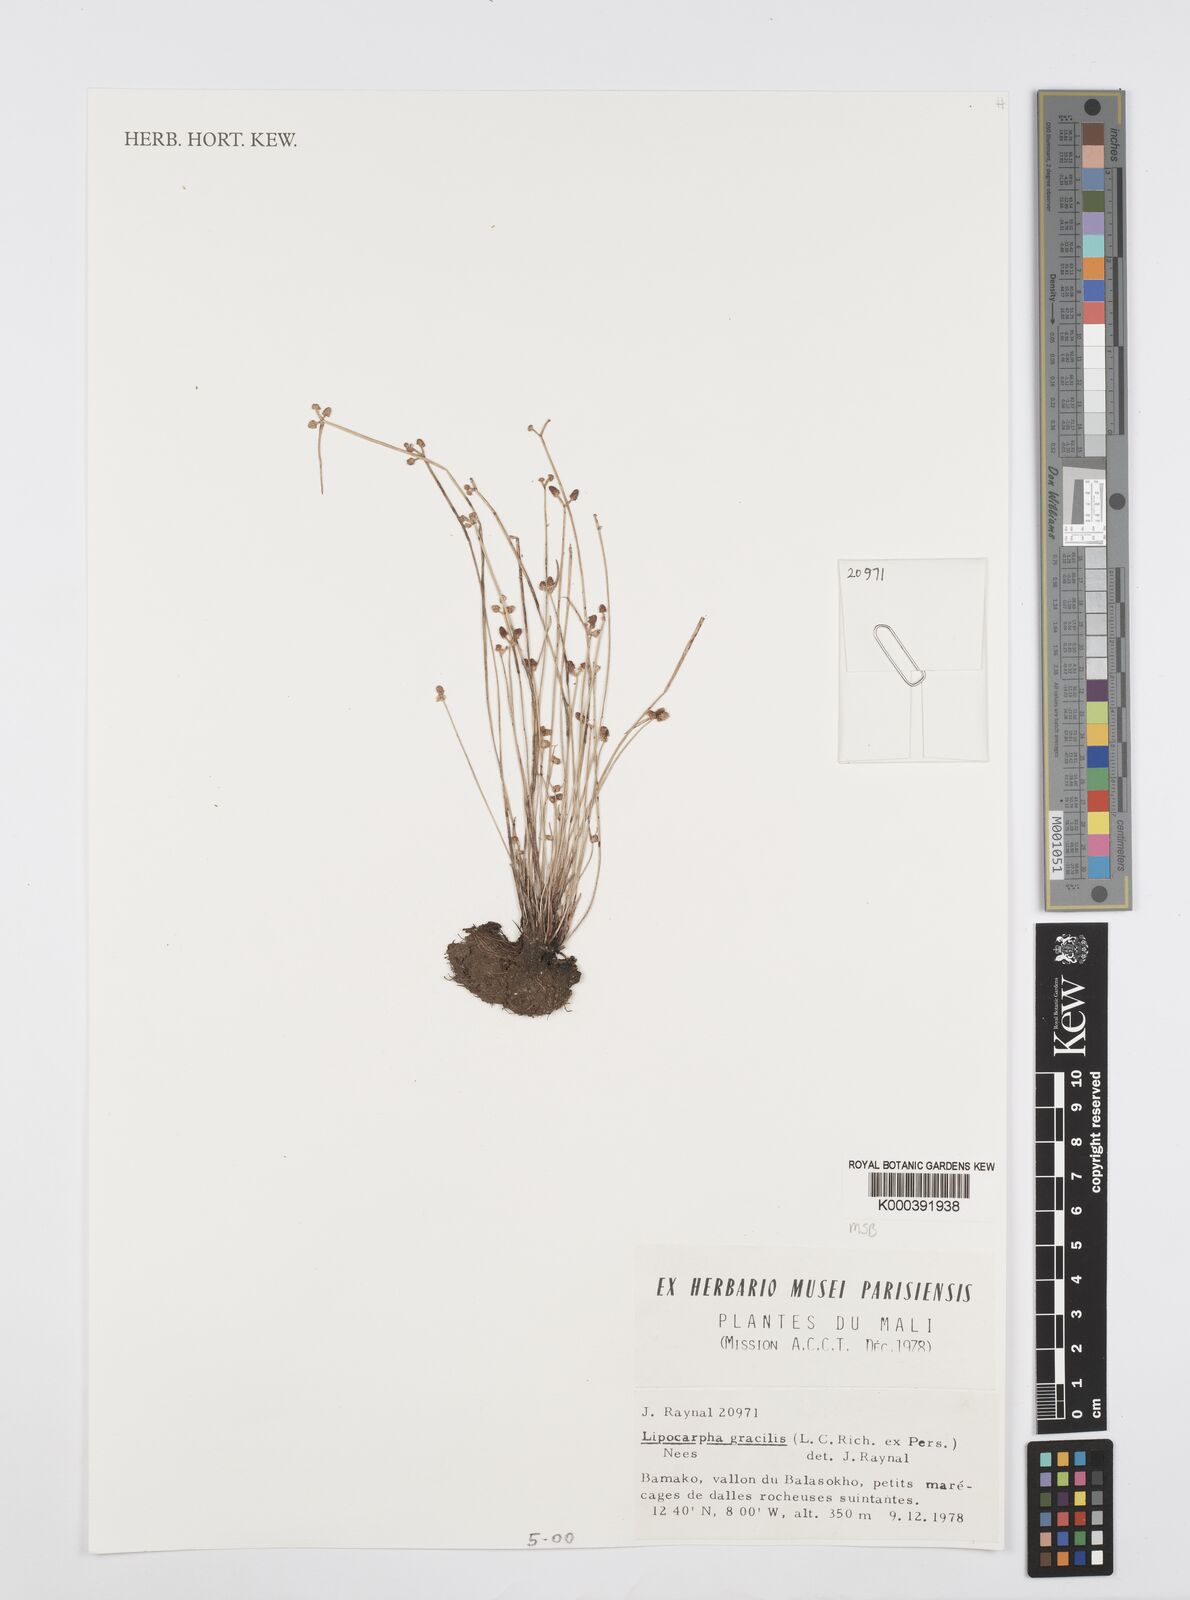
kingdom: Plantae
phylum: Tracheophyta
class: Liliopsida
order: Poales
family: Cyperaceae
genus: Cyperus
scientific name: Cyperus ceylanicus
